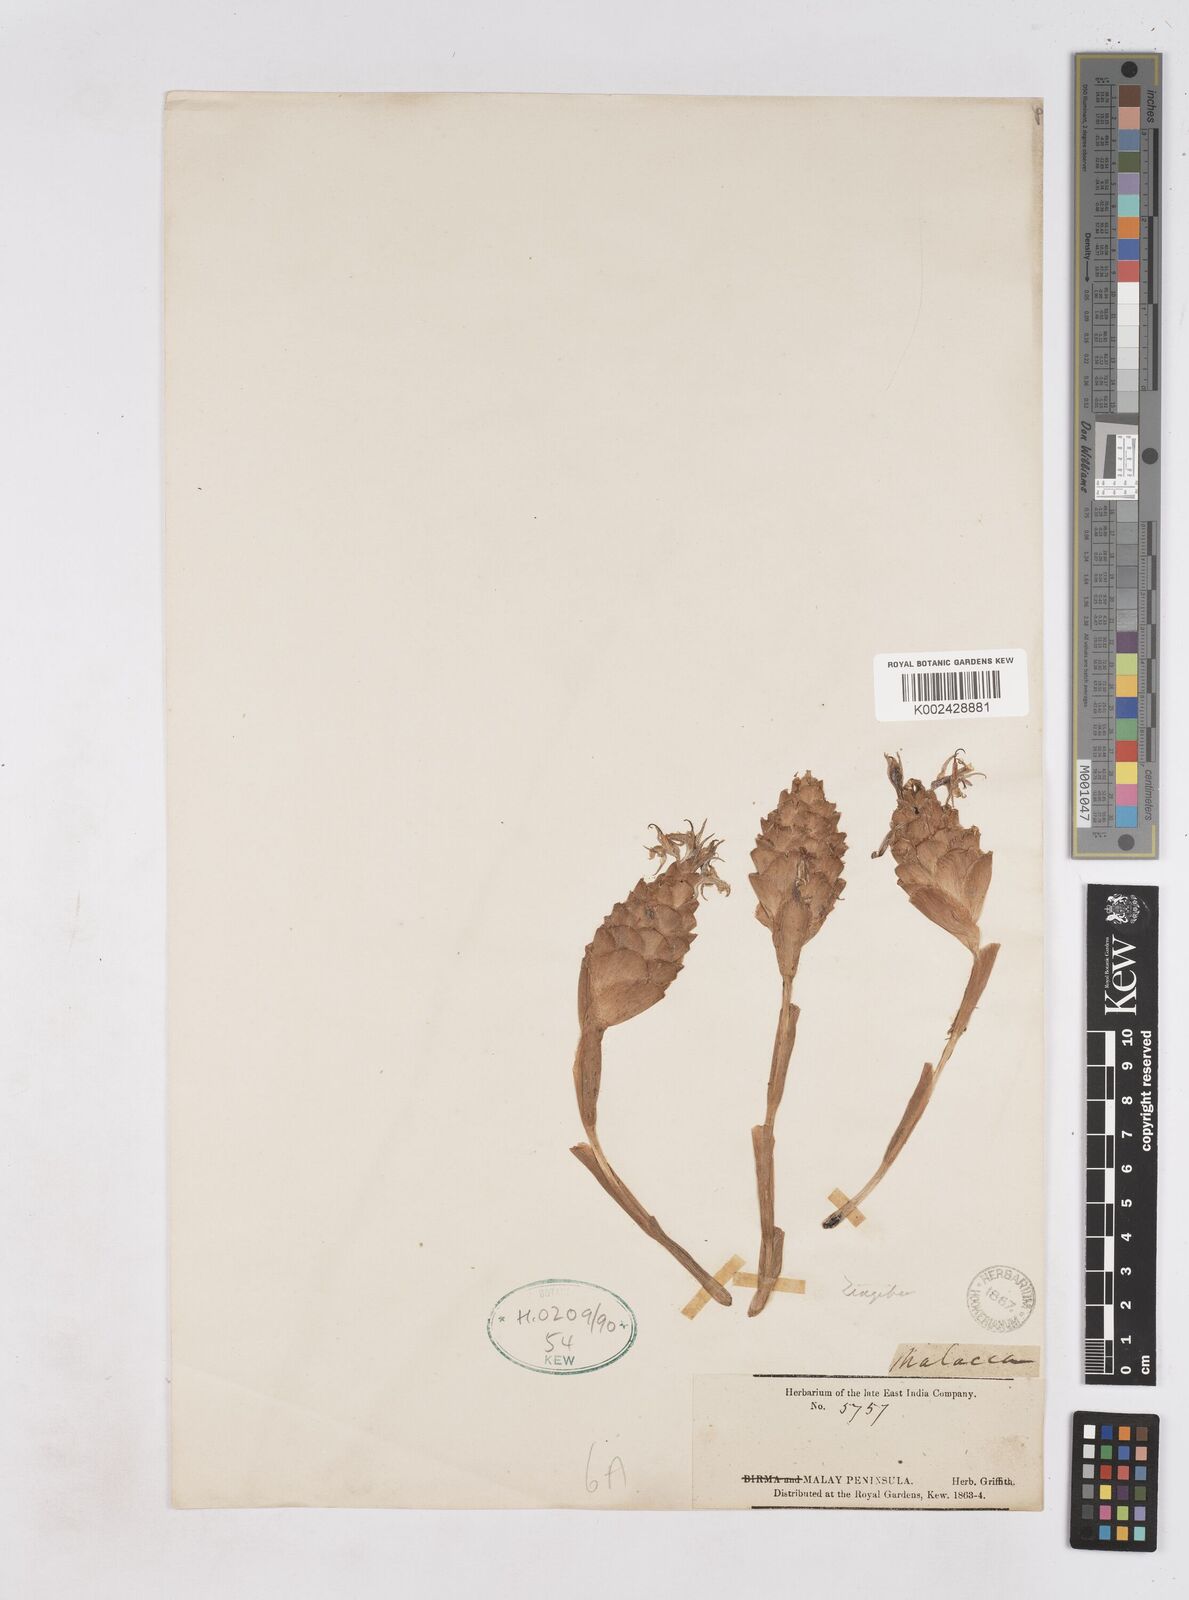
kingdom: Plantae
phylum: Tracheophyta
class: Liliopsida
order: Zingiberales
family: Zingiberaceae
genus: Zingiber
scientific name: Zingiber
